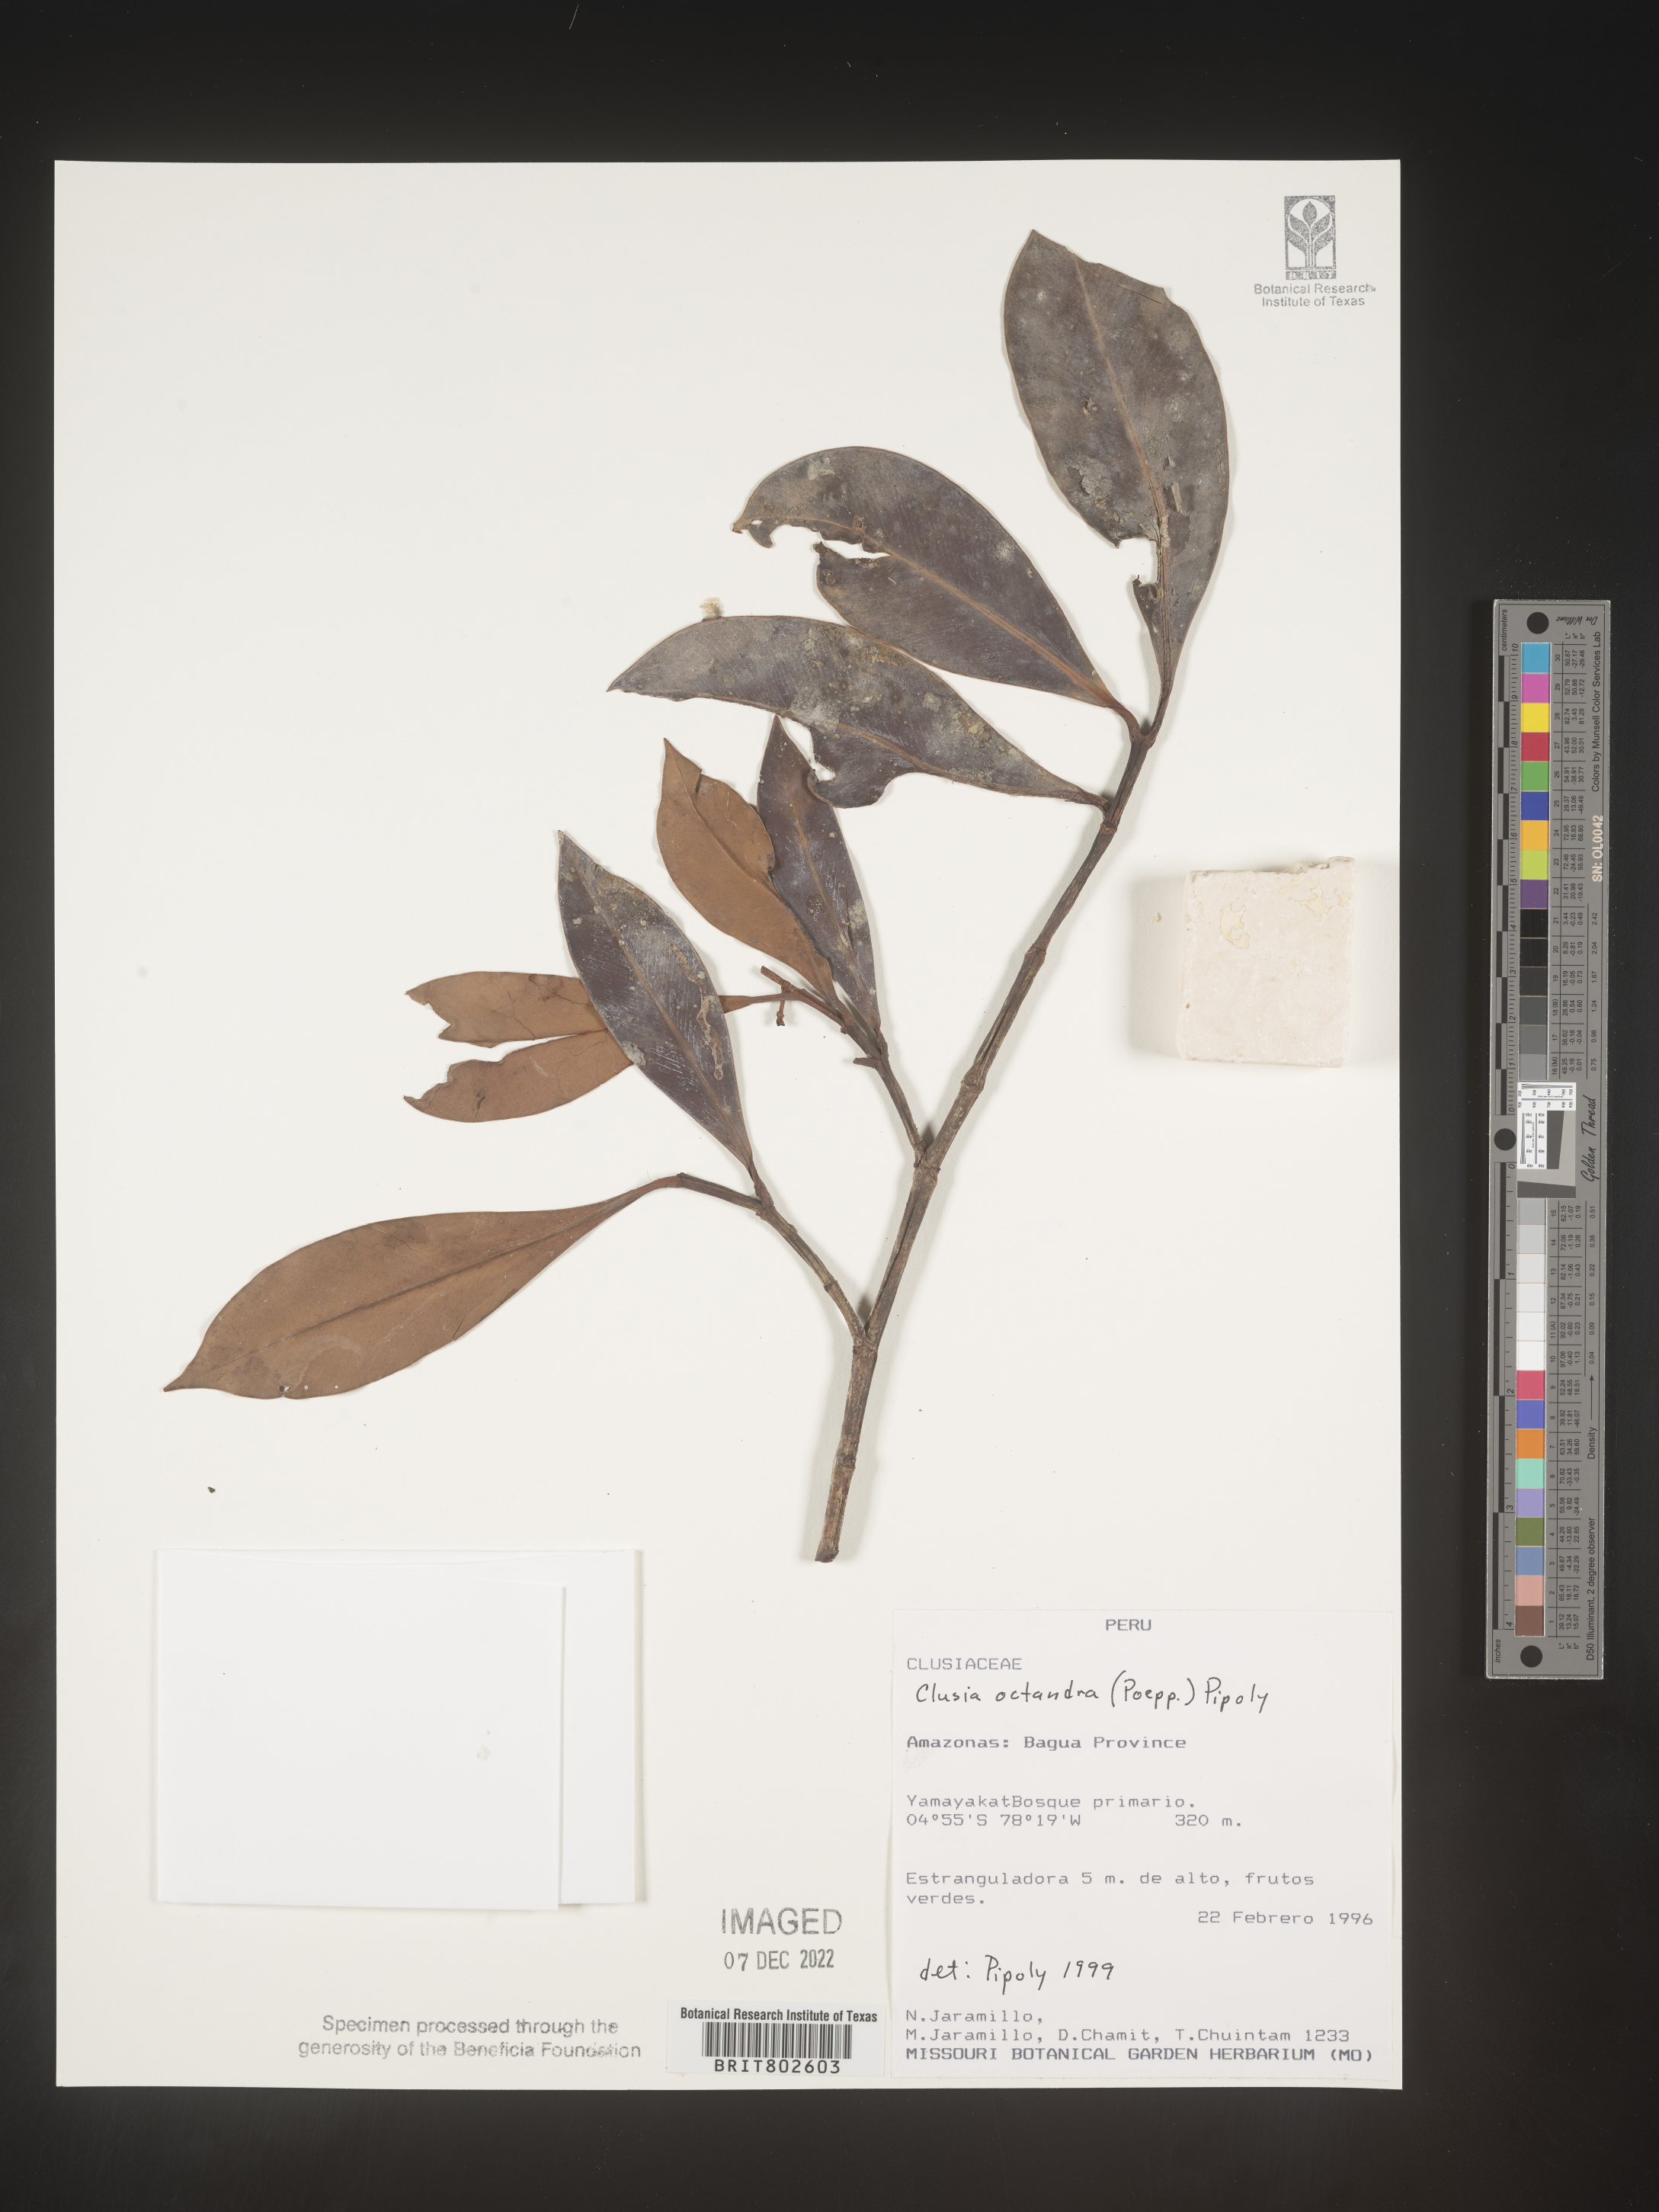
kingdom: Plantae
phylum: Tracheophyta
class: Magnoliopsida
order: Malpighiales
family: Clusiaceae
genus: Clusia
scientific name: Clusia
